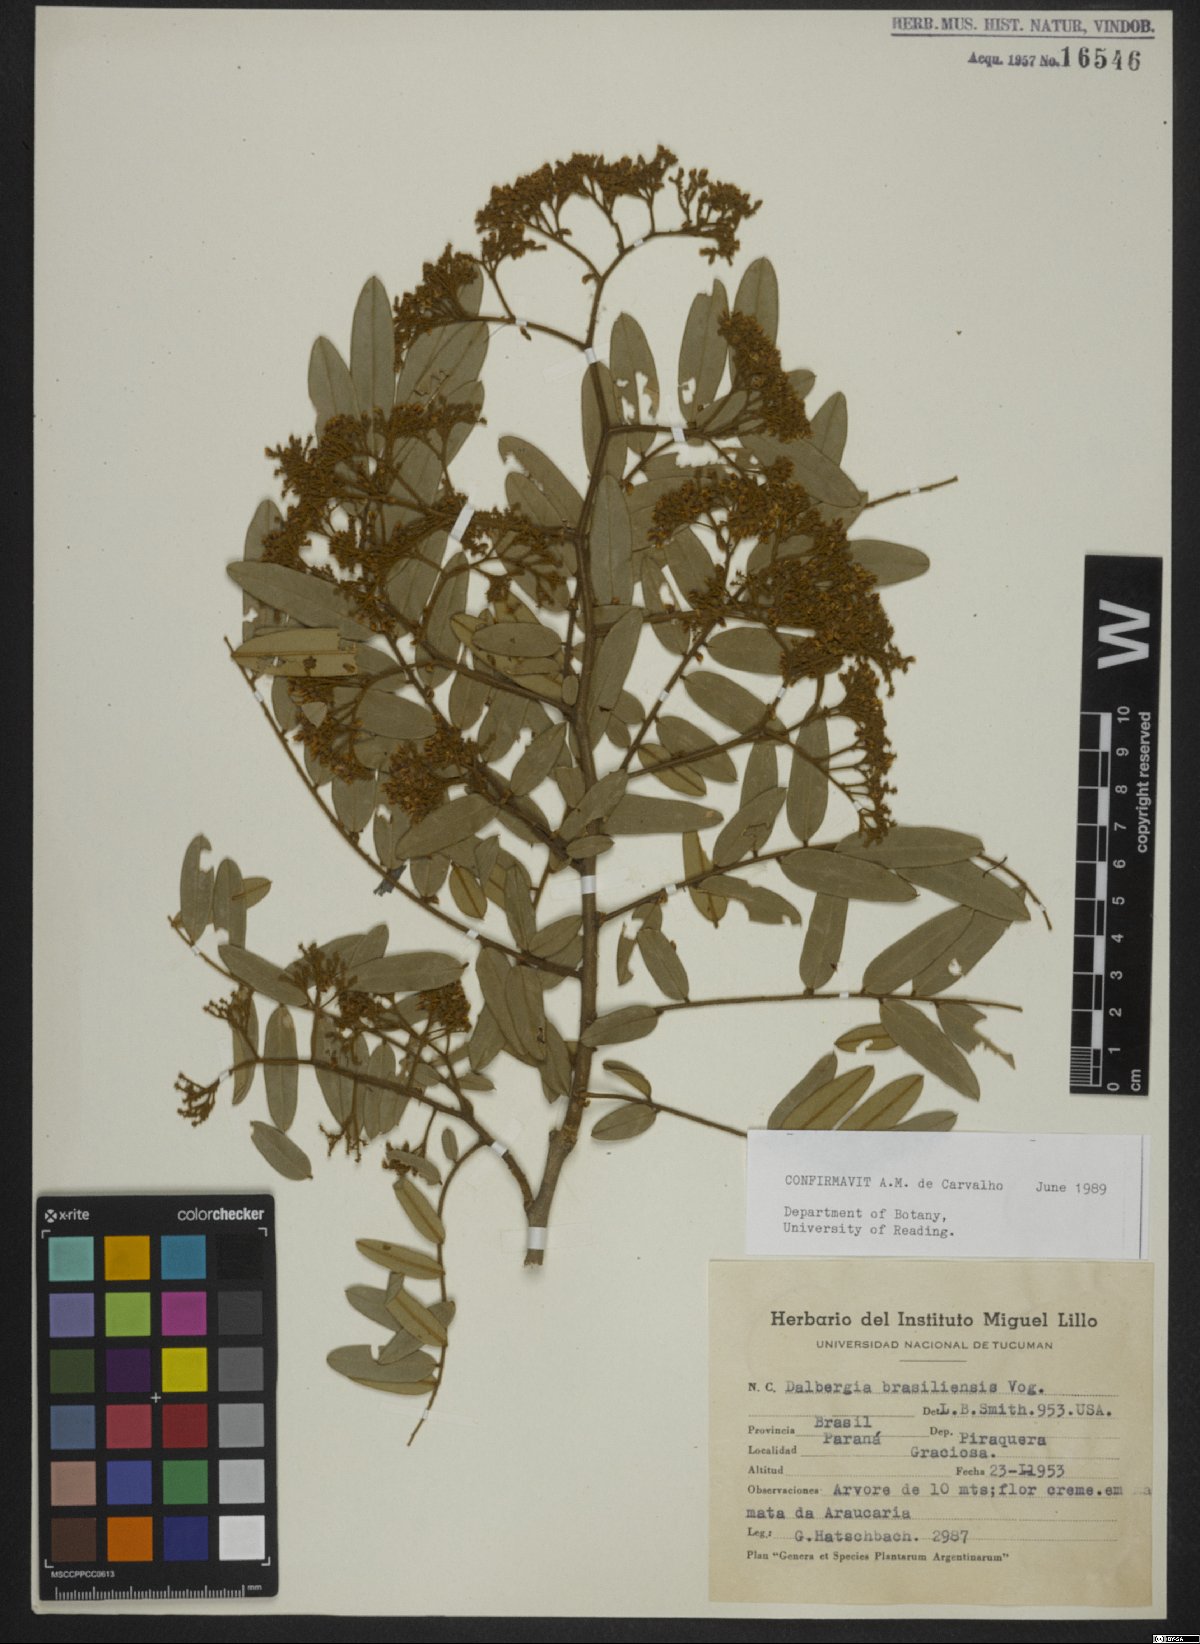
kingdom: Plantae
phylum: Tracheophyta
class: Magnoliopsida
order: Fabales
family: Fabaceae
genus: Dalbergia
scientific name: Dalbergia brasiliensis
